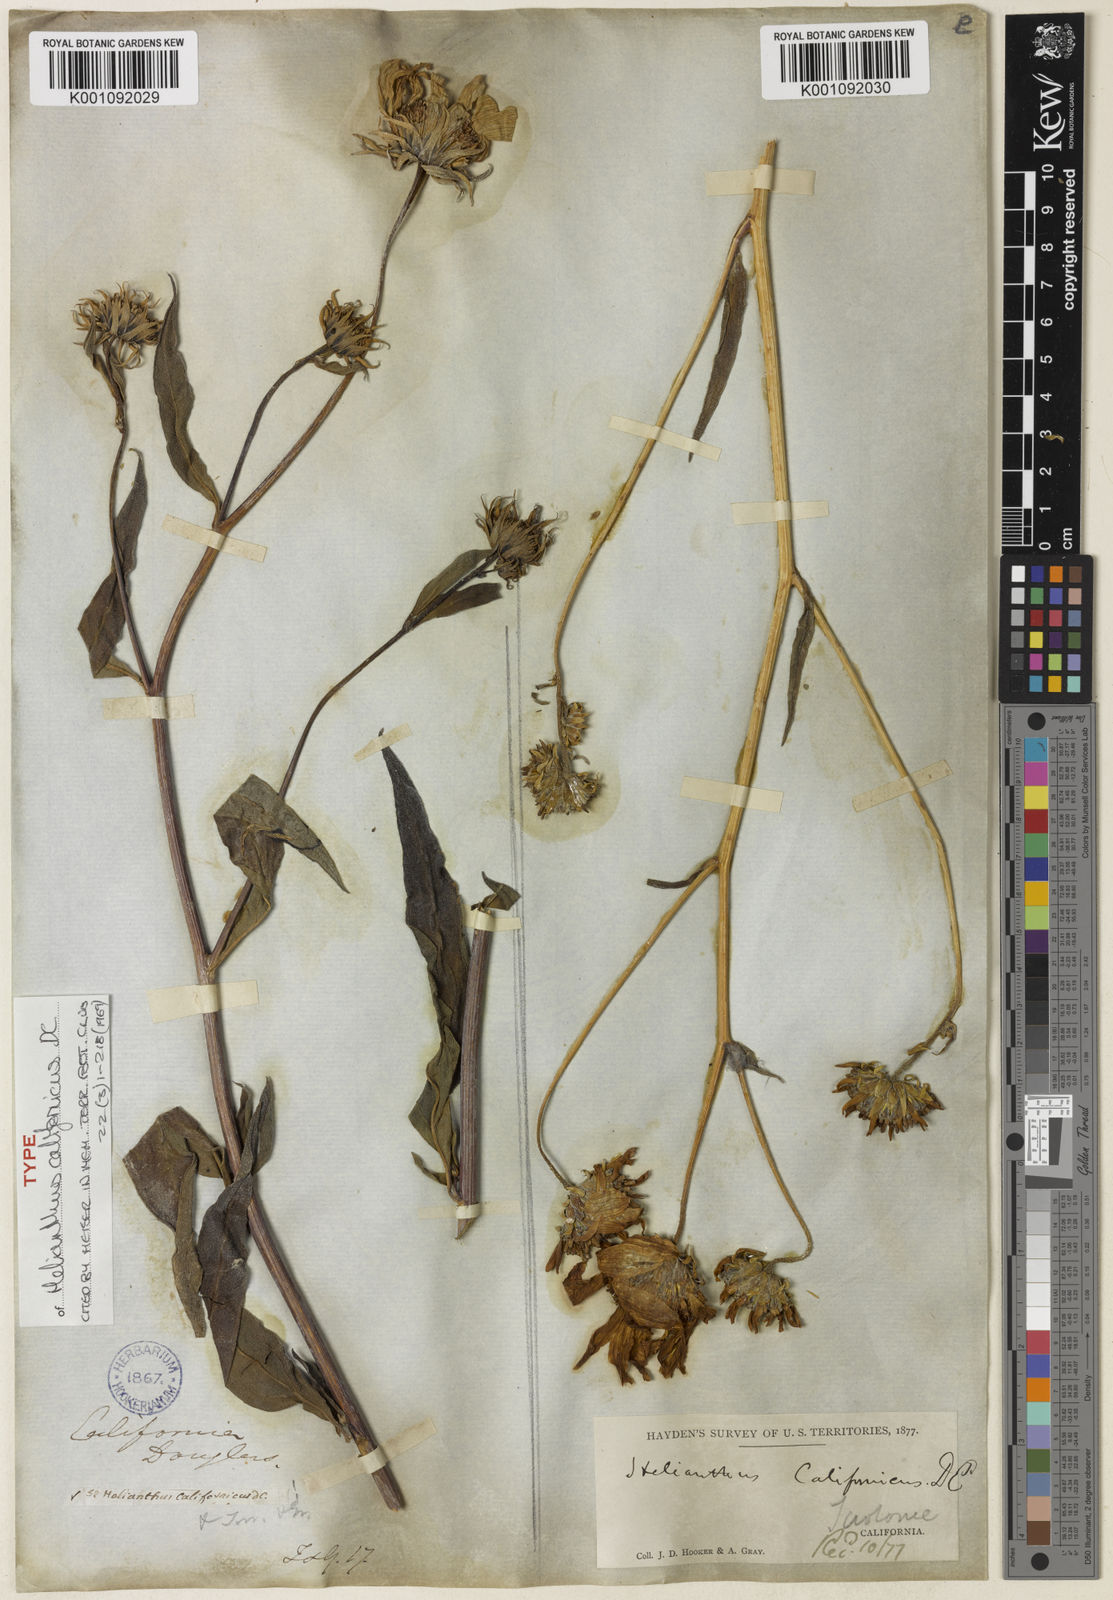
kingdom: Plantae
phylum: Tracheophyta
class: Magnoliopsida
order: Asterales
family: Asteraceae
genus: Helianthus
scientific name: Helianthus californicus
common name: California sunflower
